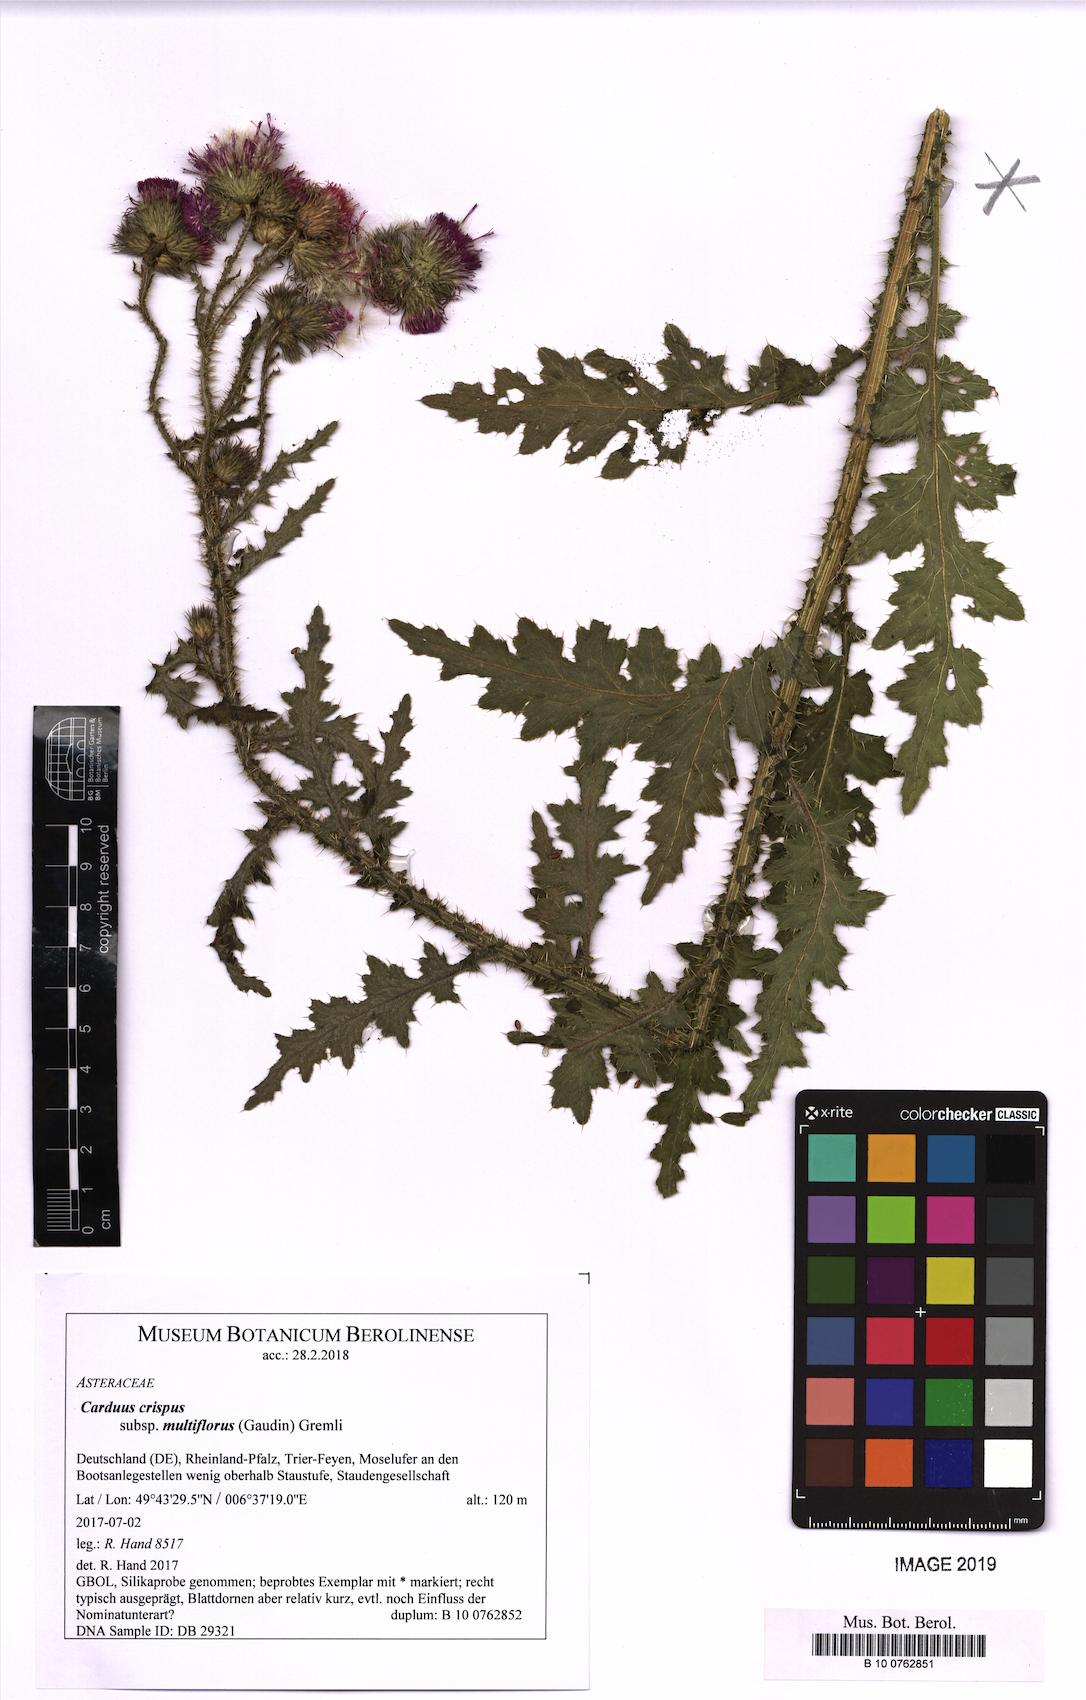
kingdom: Plantae
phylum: Tracheophyta
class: Magnoliopsida
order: Asterales
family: Asteraceae
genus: Carduus
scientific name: Carduus crispus
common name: Welted thistle
